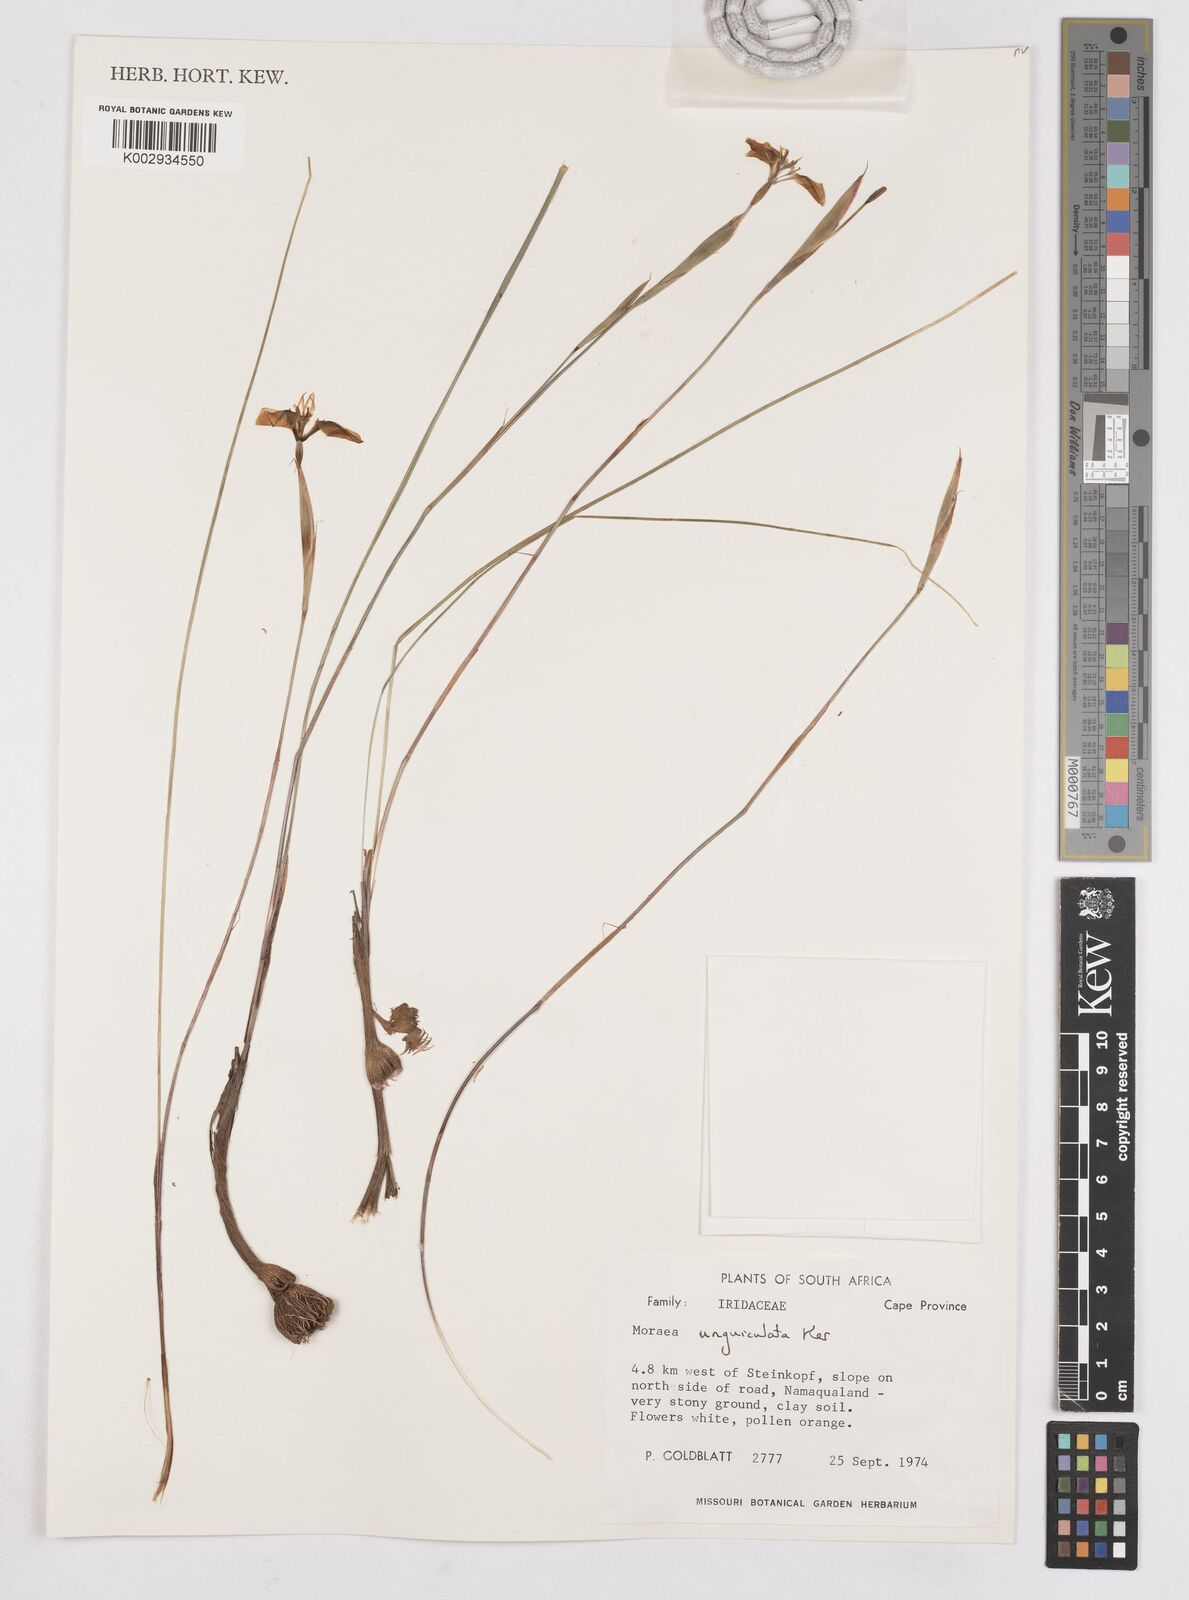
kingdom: Plantae
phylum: Tracheophyta
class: Liliopsida
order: Asparagales
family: Iridaceae
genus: Moraea
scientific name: Moraea unguiculata
